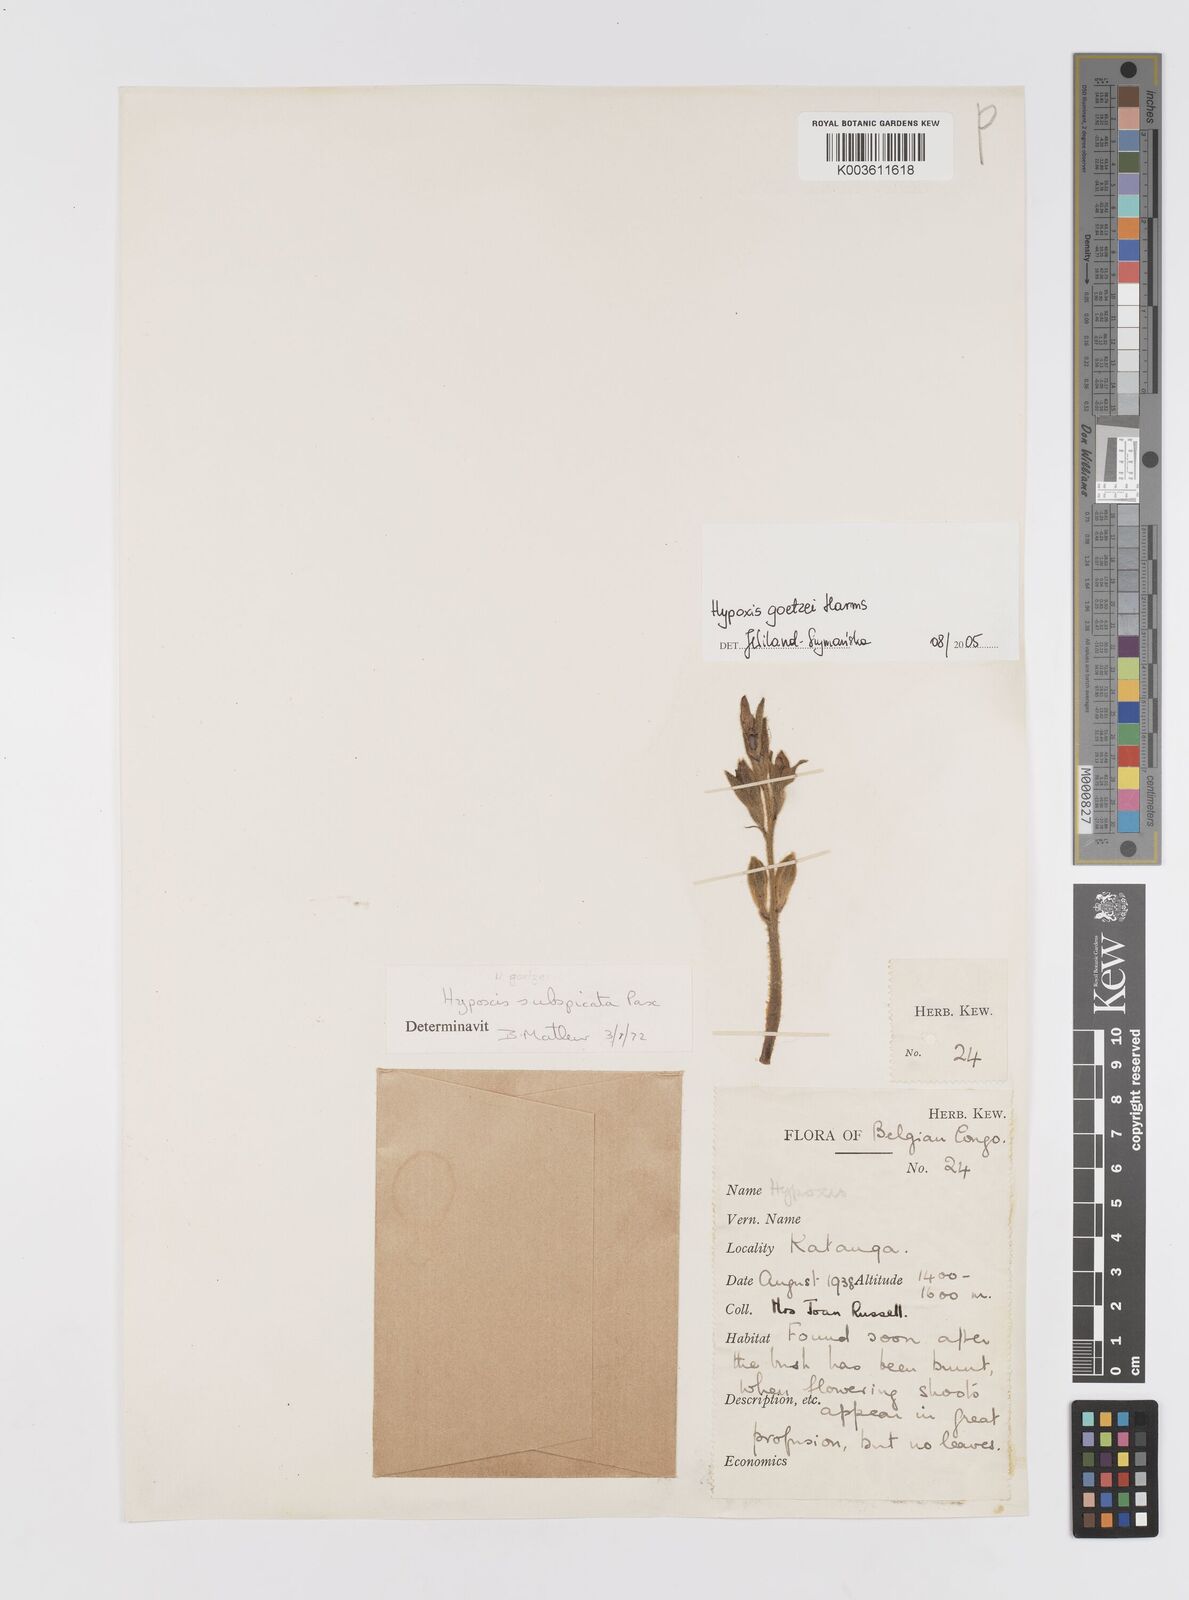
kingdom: Plantae
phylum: Tracheophyta
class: Liliopsida
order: Asparagales
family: Hypoxidaceae
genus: Hypoxis
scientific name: Hypoxis goetzei
